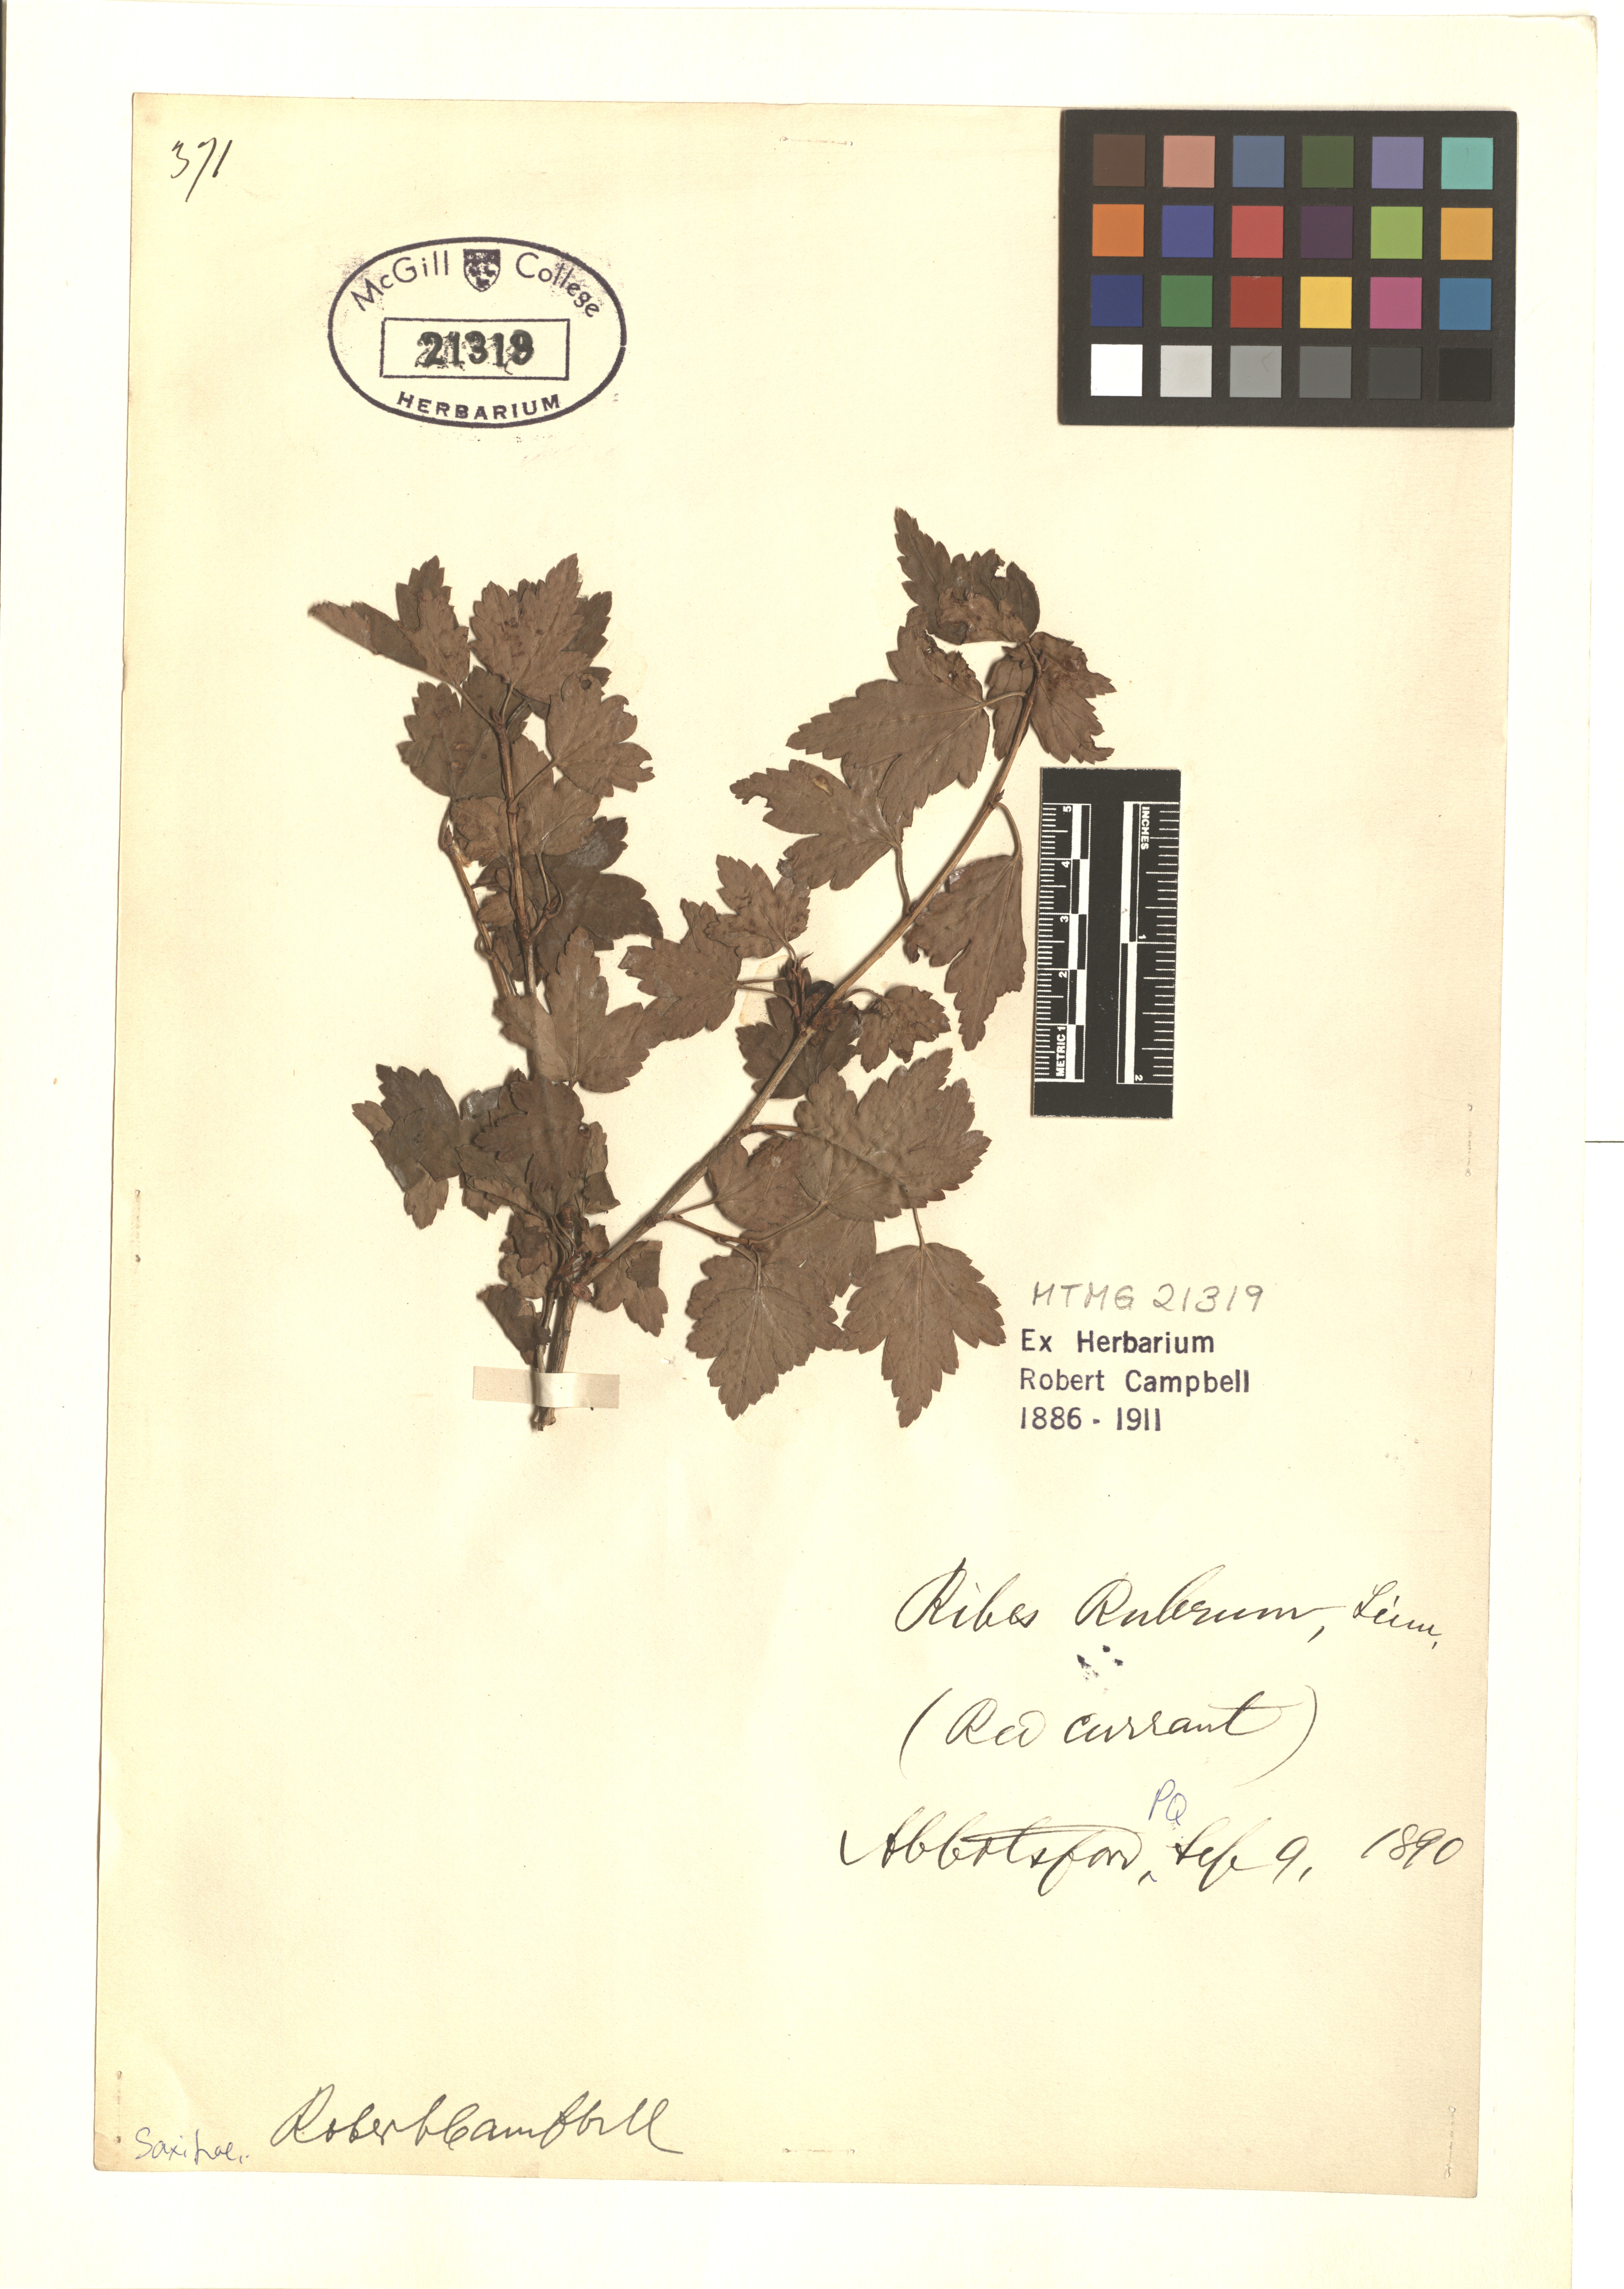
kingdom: Plantae
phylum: Tracheophyta
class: Magnoliopsida
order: Saxifragales
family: Grossulariaceae
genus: Ribes
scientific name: Ribes rubrum
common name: Red currant
